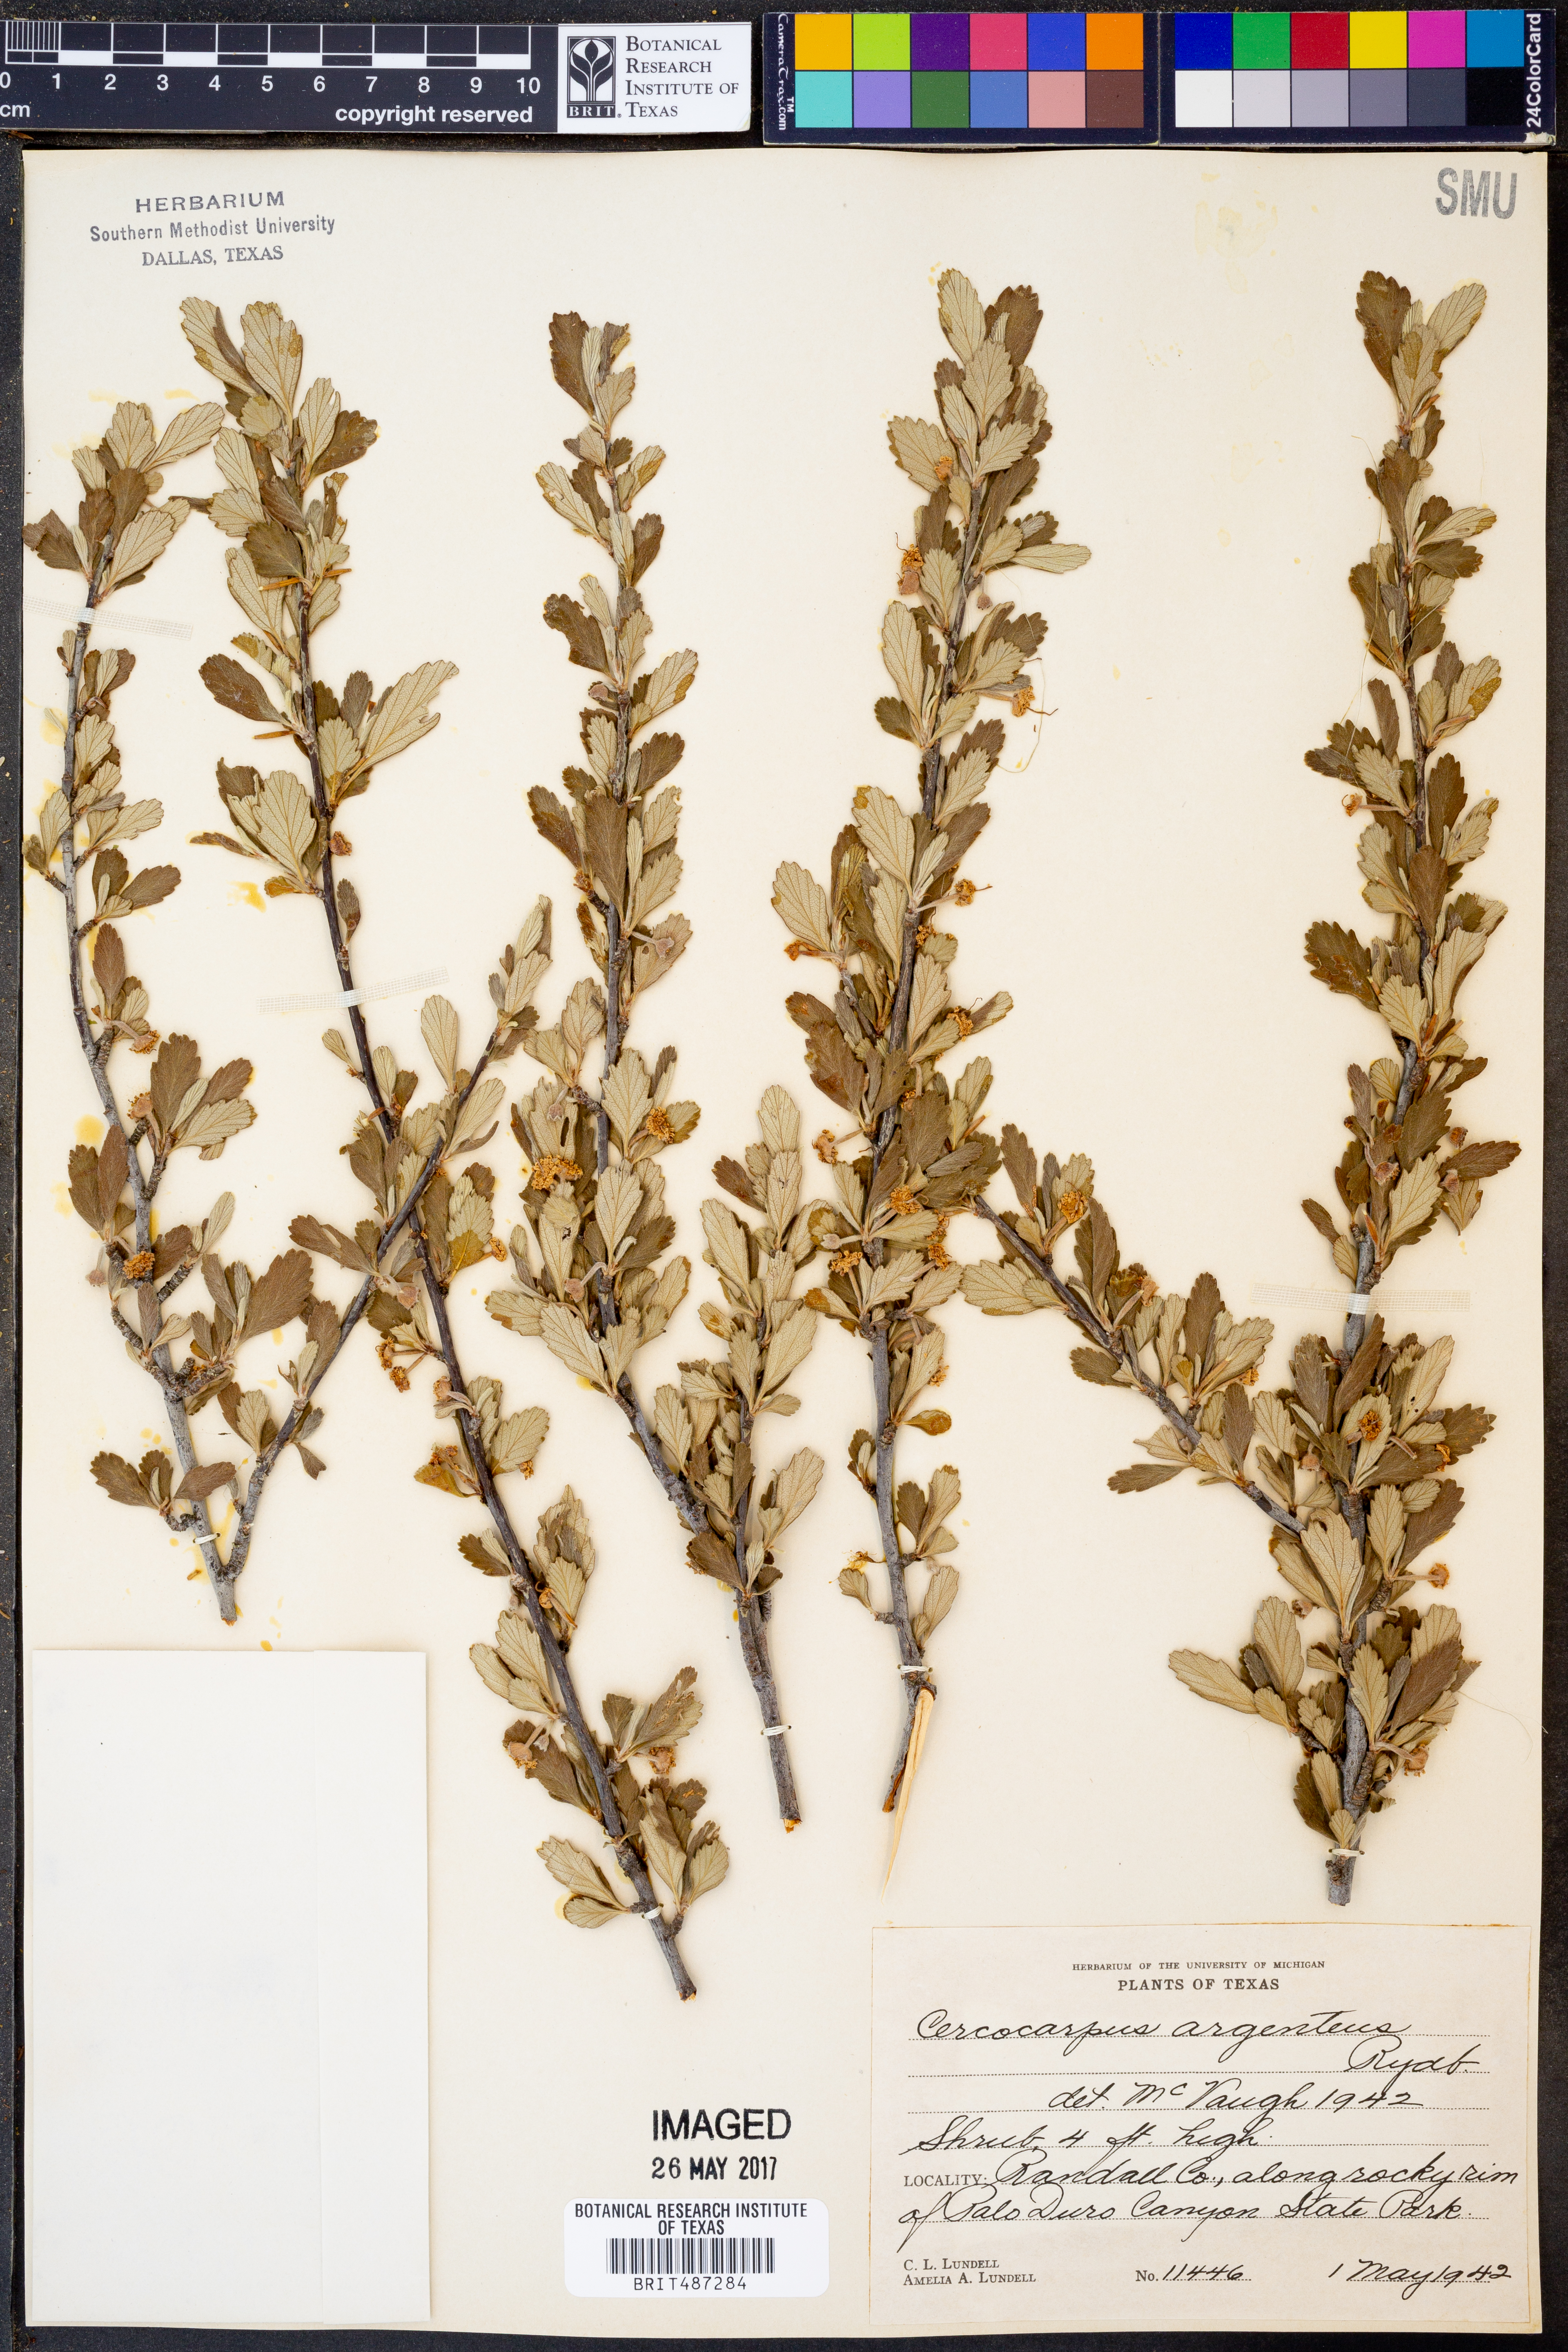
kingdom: Plantae
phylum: Tracheophyta
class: Magnoliopsida
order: Rosales
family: Rosaceae
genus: Cercocarpus
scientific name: Cercocarpus intricatus
